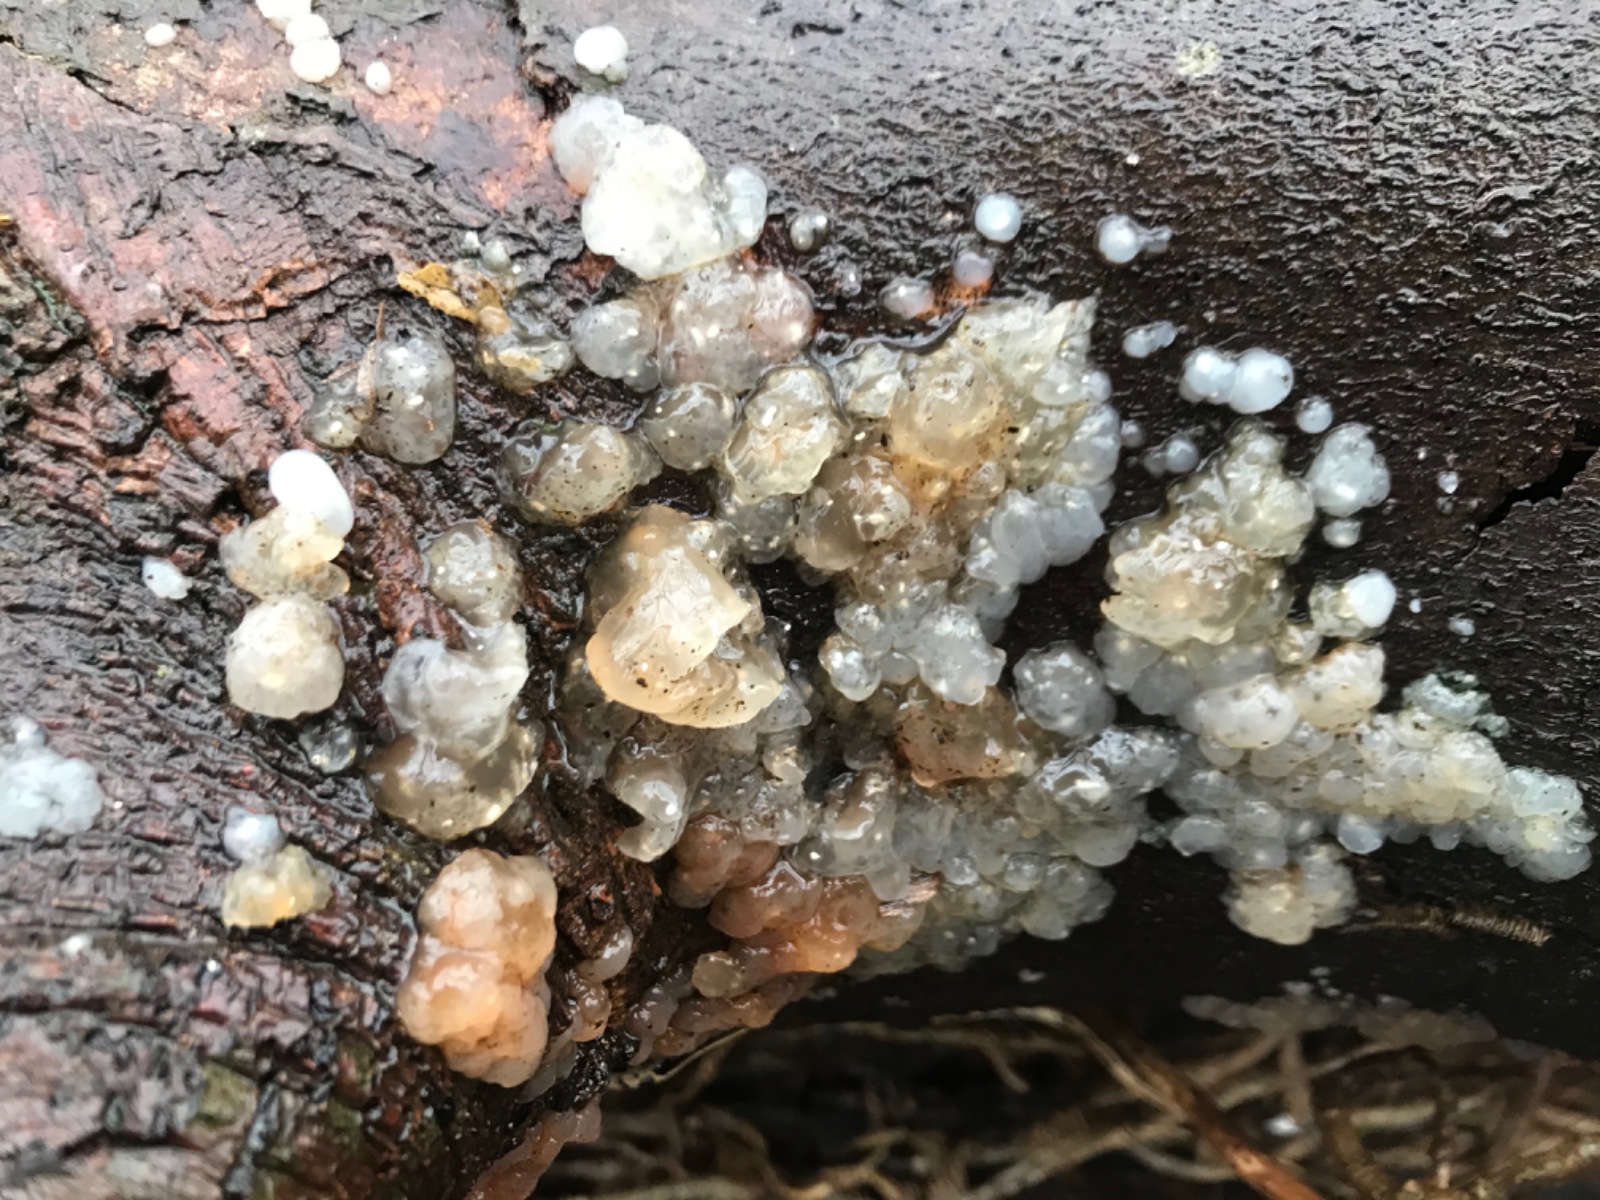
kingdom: Fungi
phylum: Basidiomycota
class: Agaricomycetes
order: Auriculariales
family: Hyaloriaceae
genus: Myxarium
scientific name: Myxarium nucleatum
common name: klar bævretop
